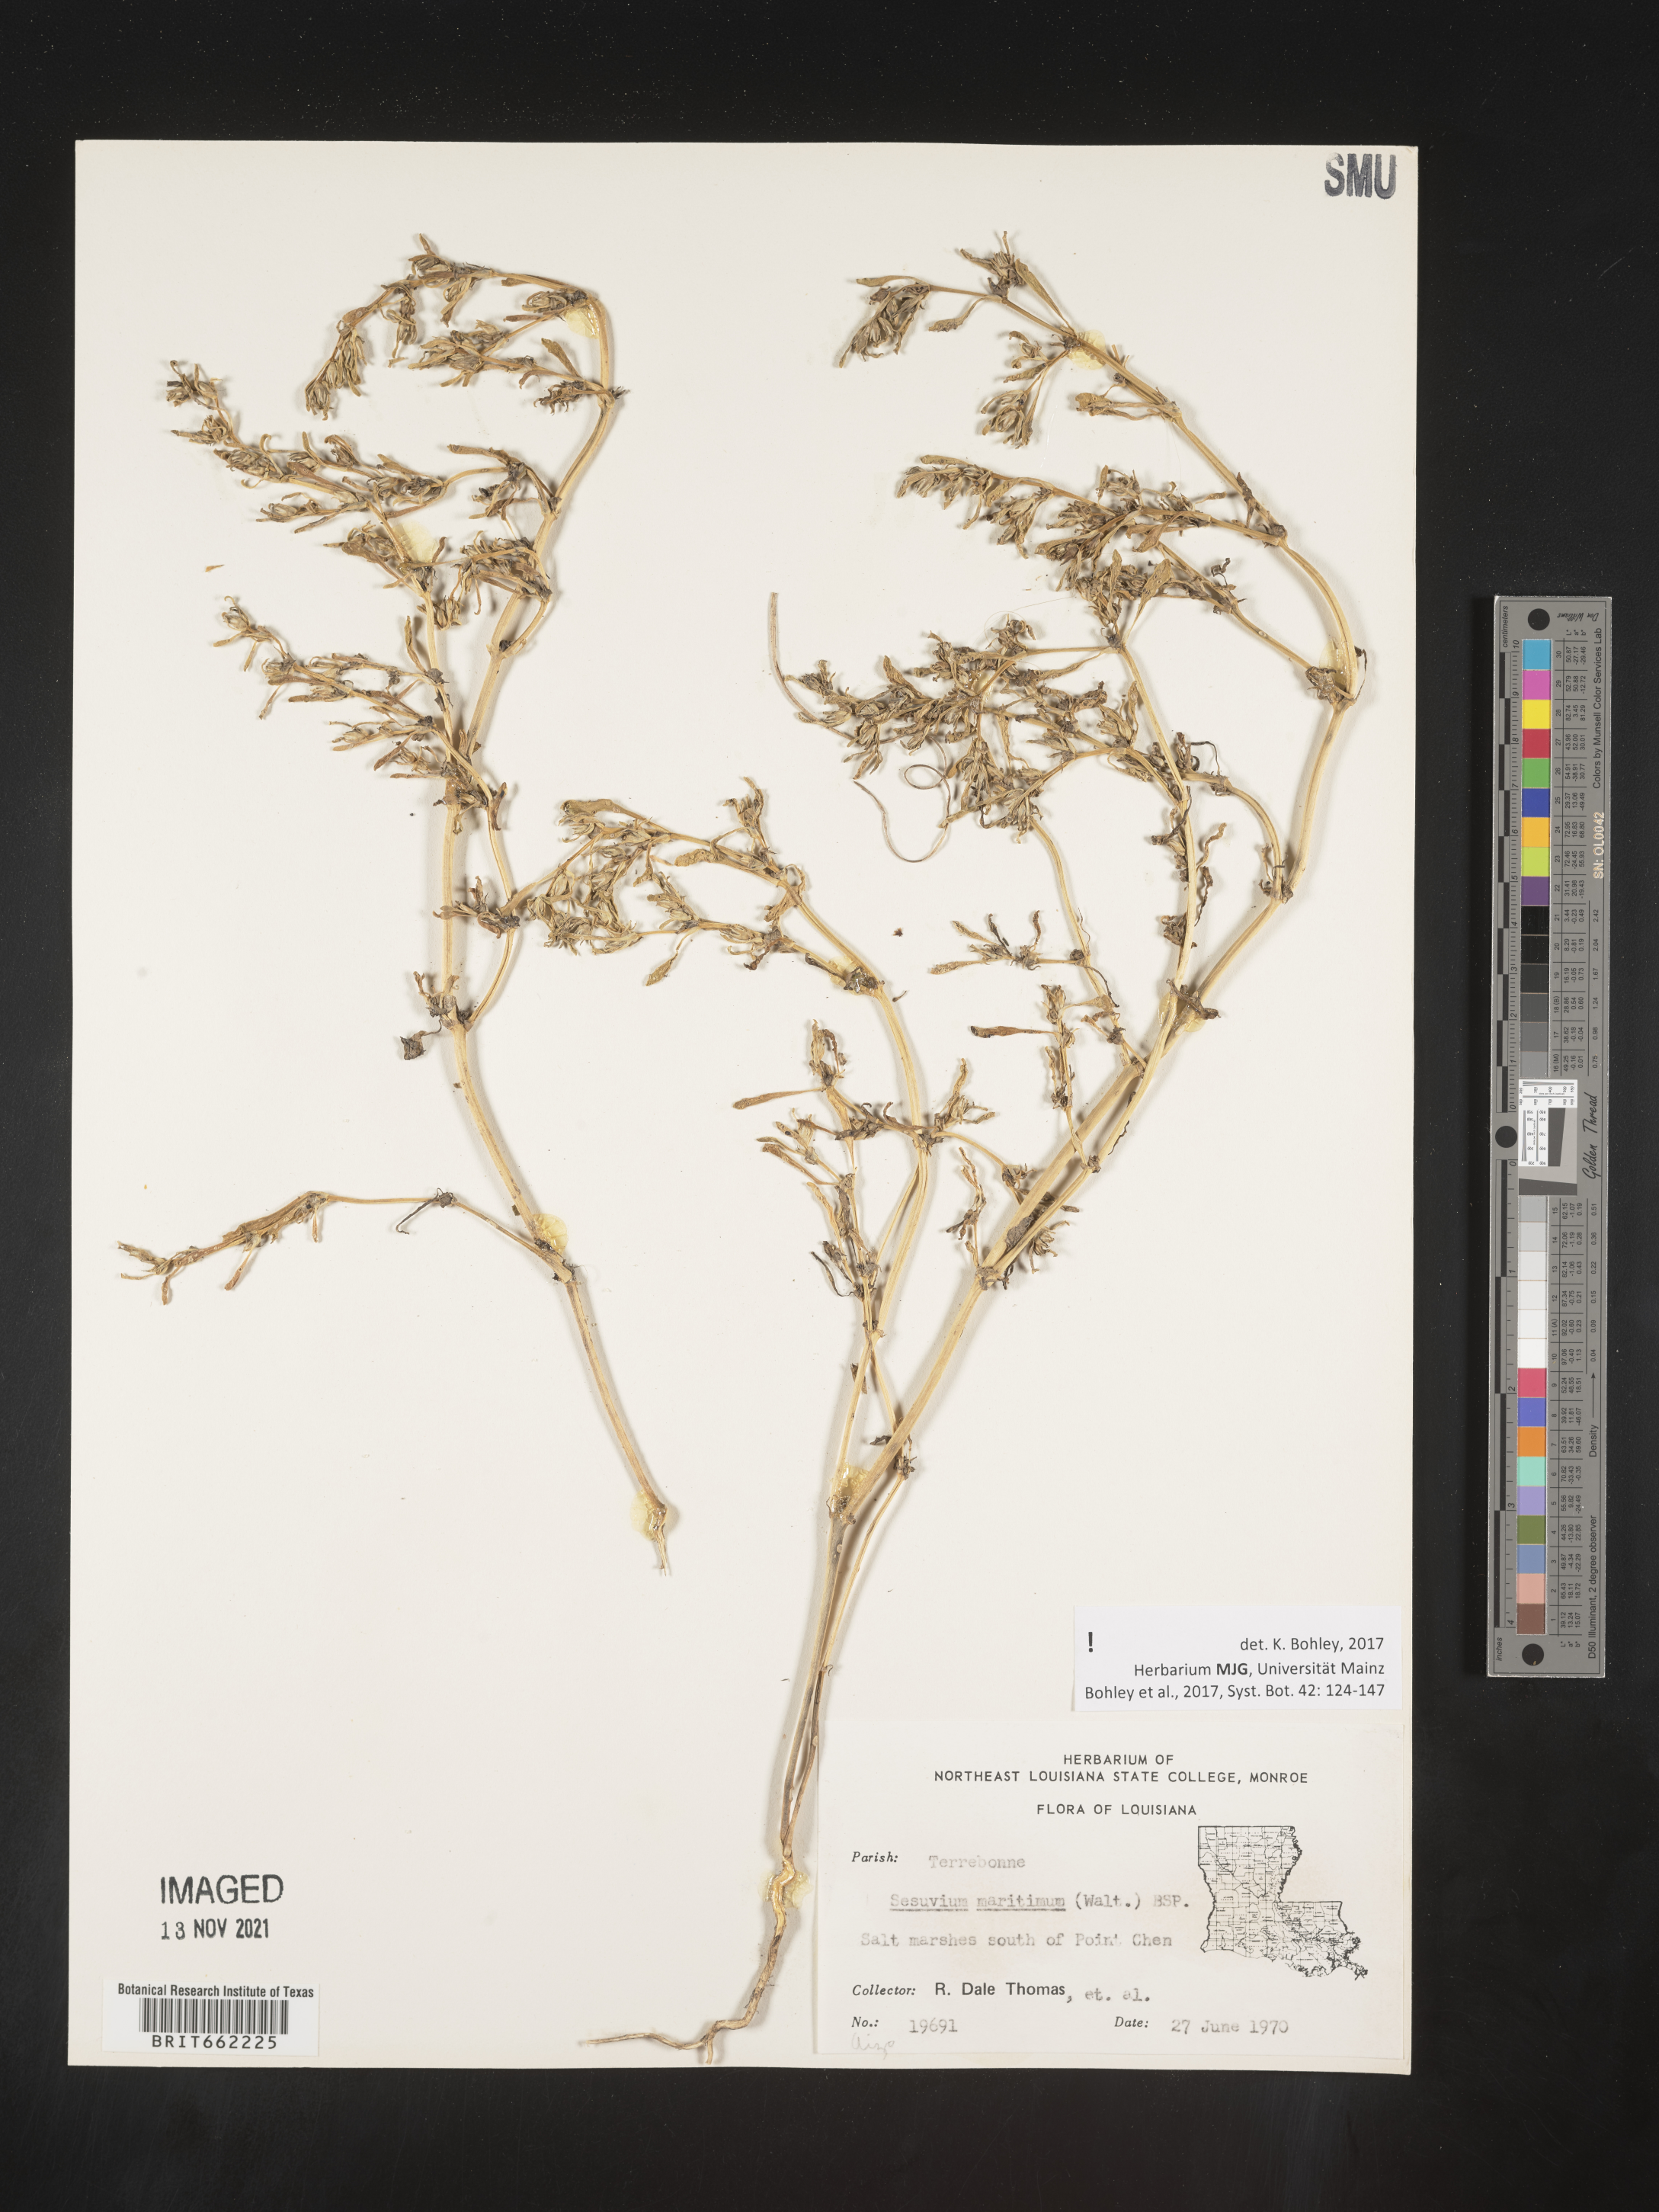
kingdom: Plantae
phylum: Tracheophyta
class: Magnoliopsida
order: Caryophyllales
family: Aizoaceae
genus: Sesuvium
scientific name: Sesuvium
